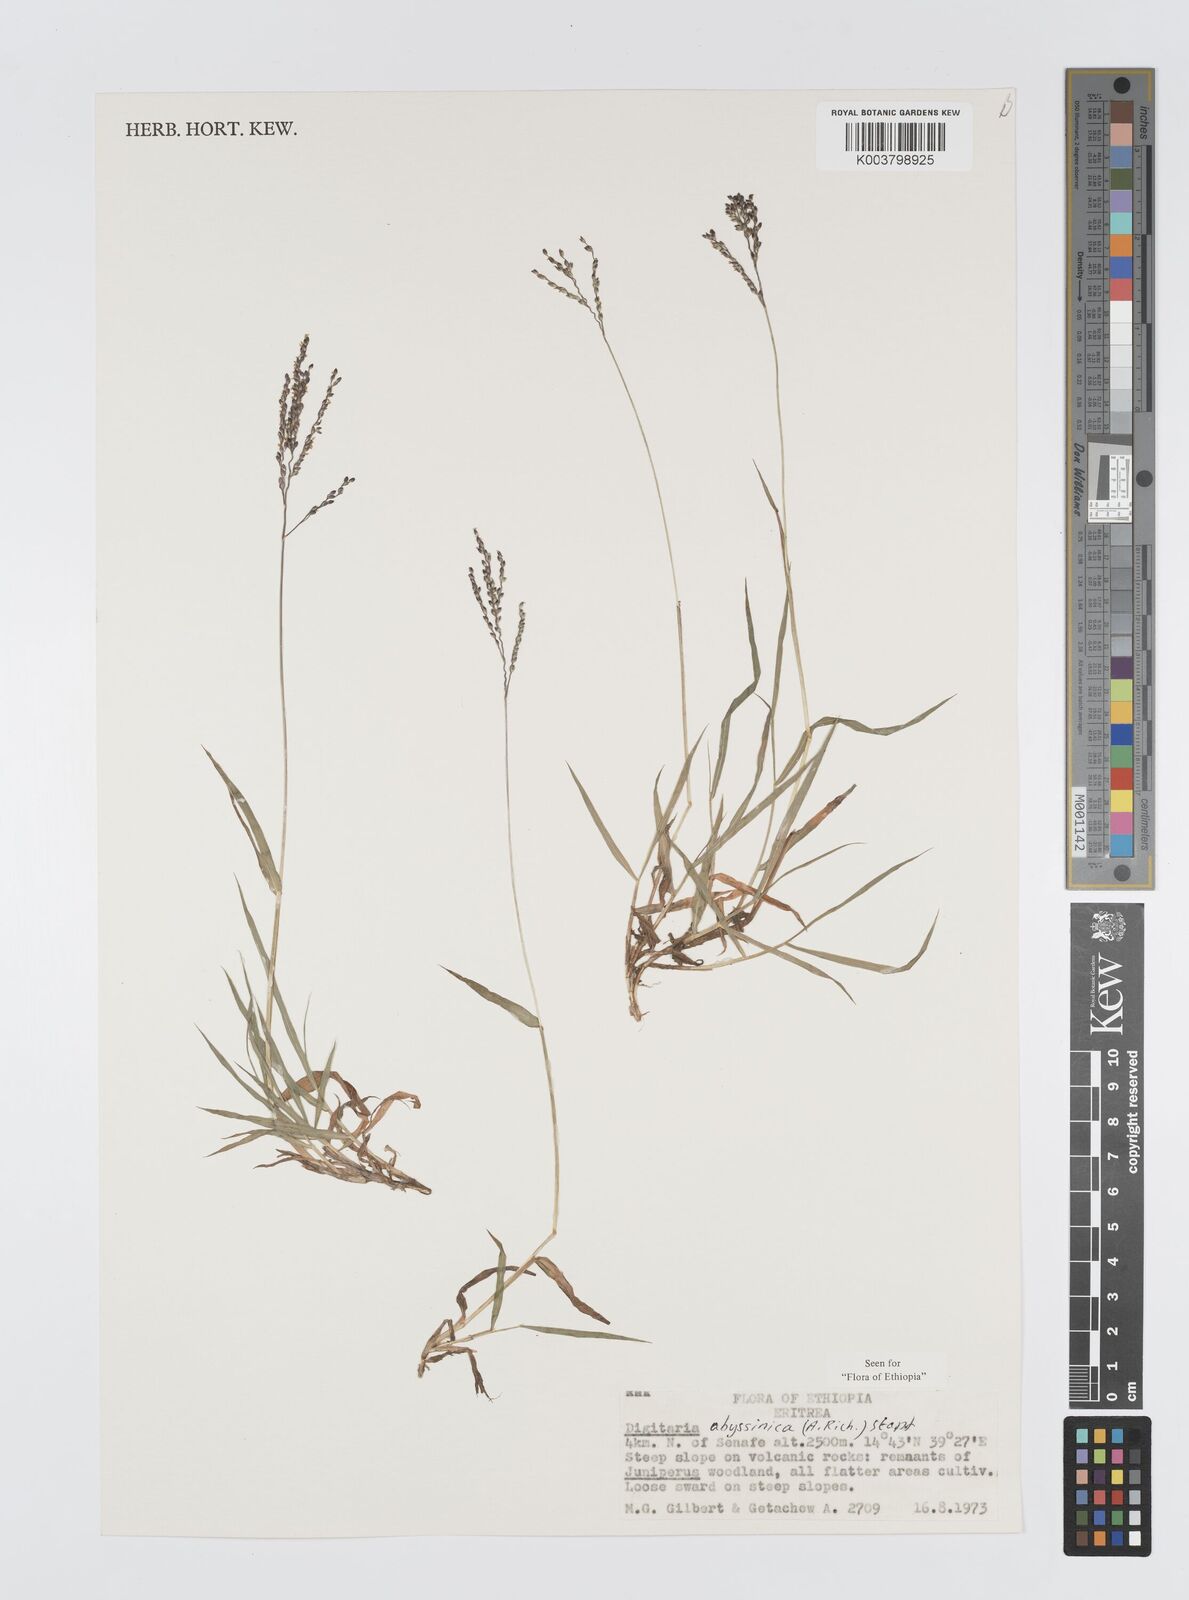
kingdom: Plantae
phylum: Tracheophyta
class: Liliopsida
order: Poales
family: Poaceae
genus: Digitaria
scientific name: Digitaria abyssinica
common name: African couchgrass
